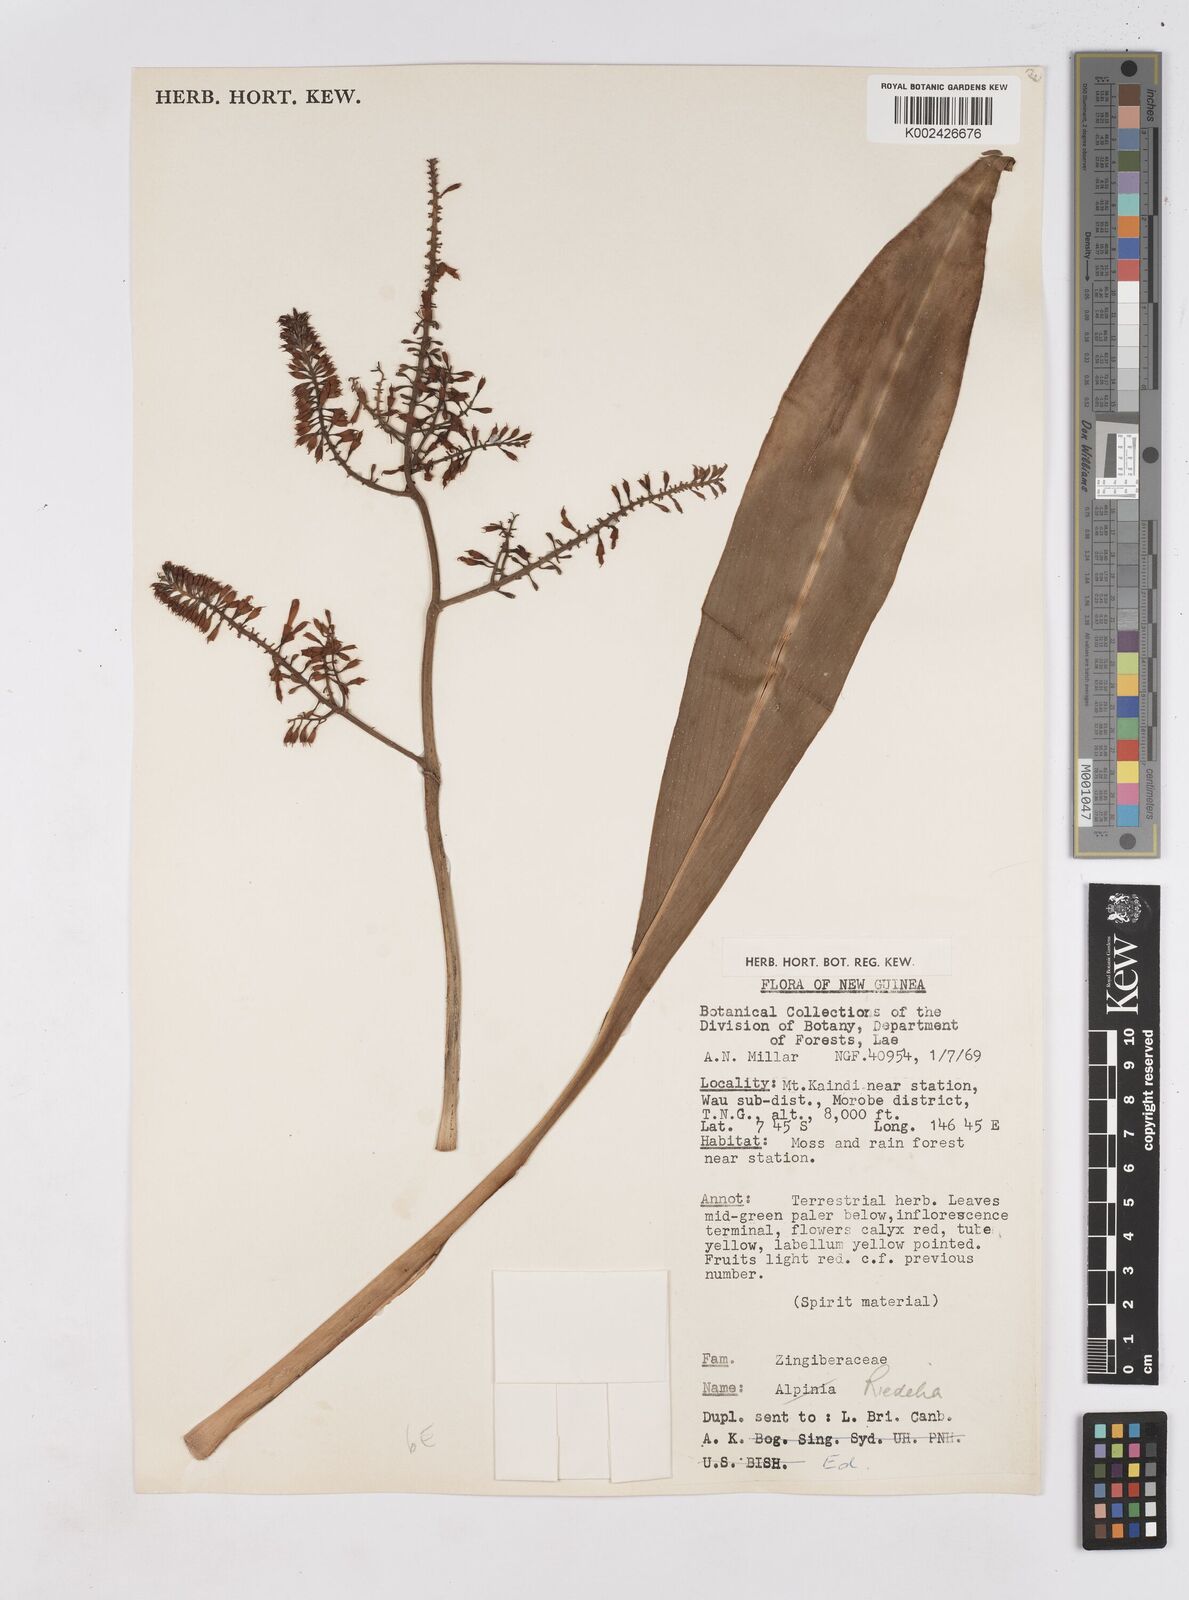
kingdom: Plantae
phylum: Tracheophyta
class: Liliopsida
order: Zingiberales
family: Zingiberaceae
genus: Riedelia
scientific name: Riedelia
